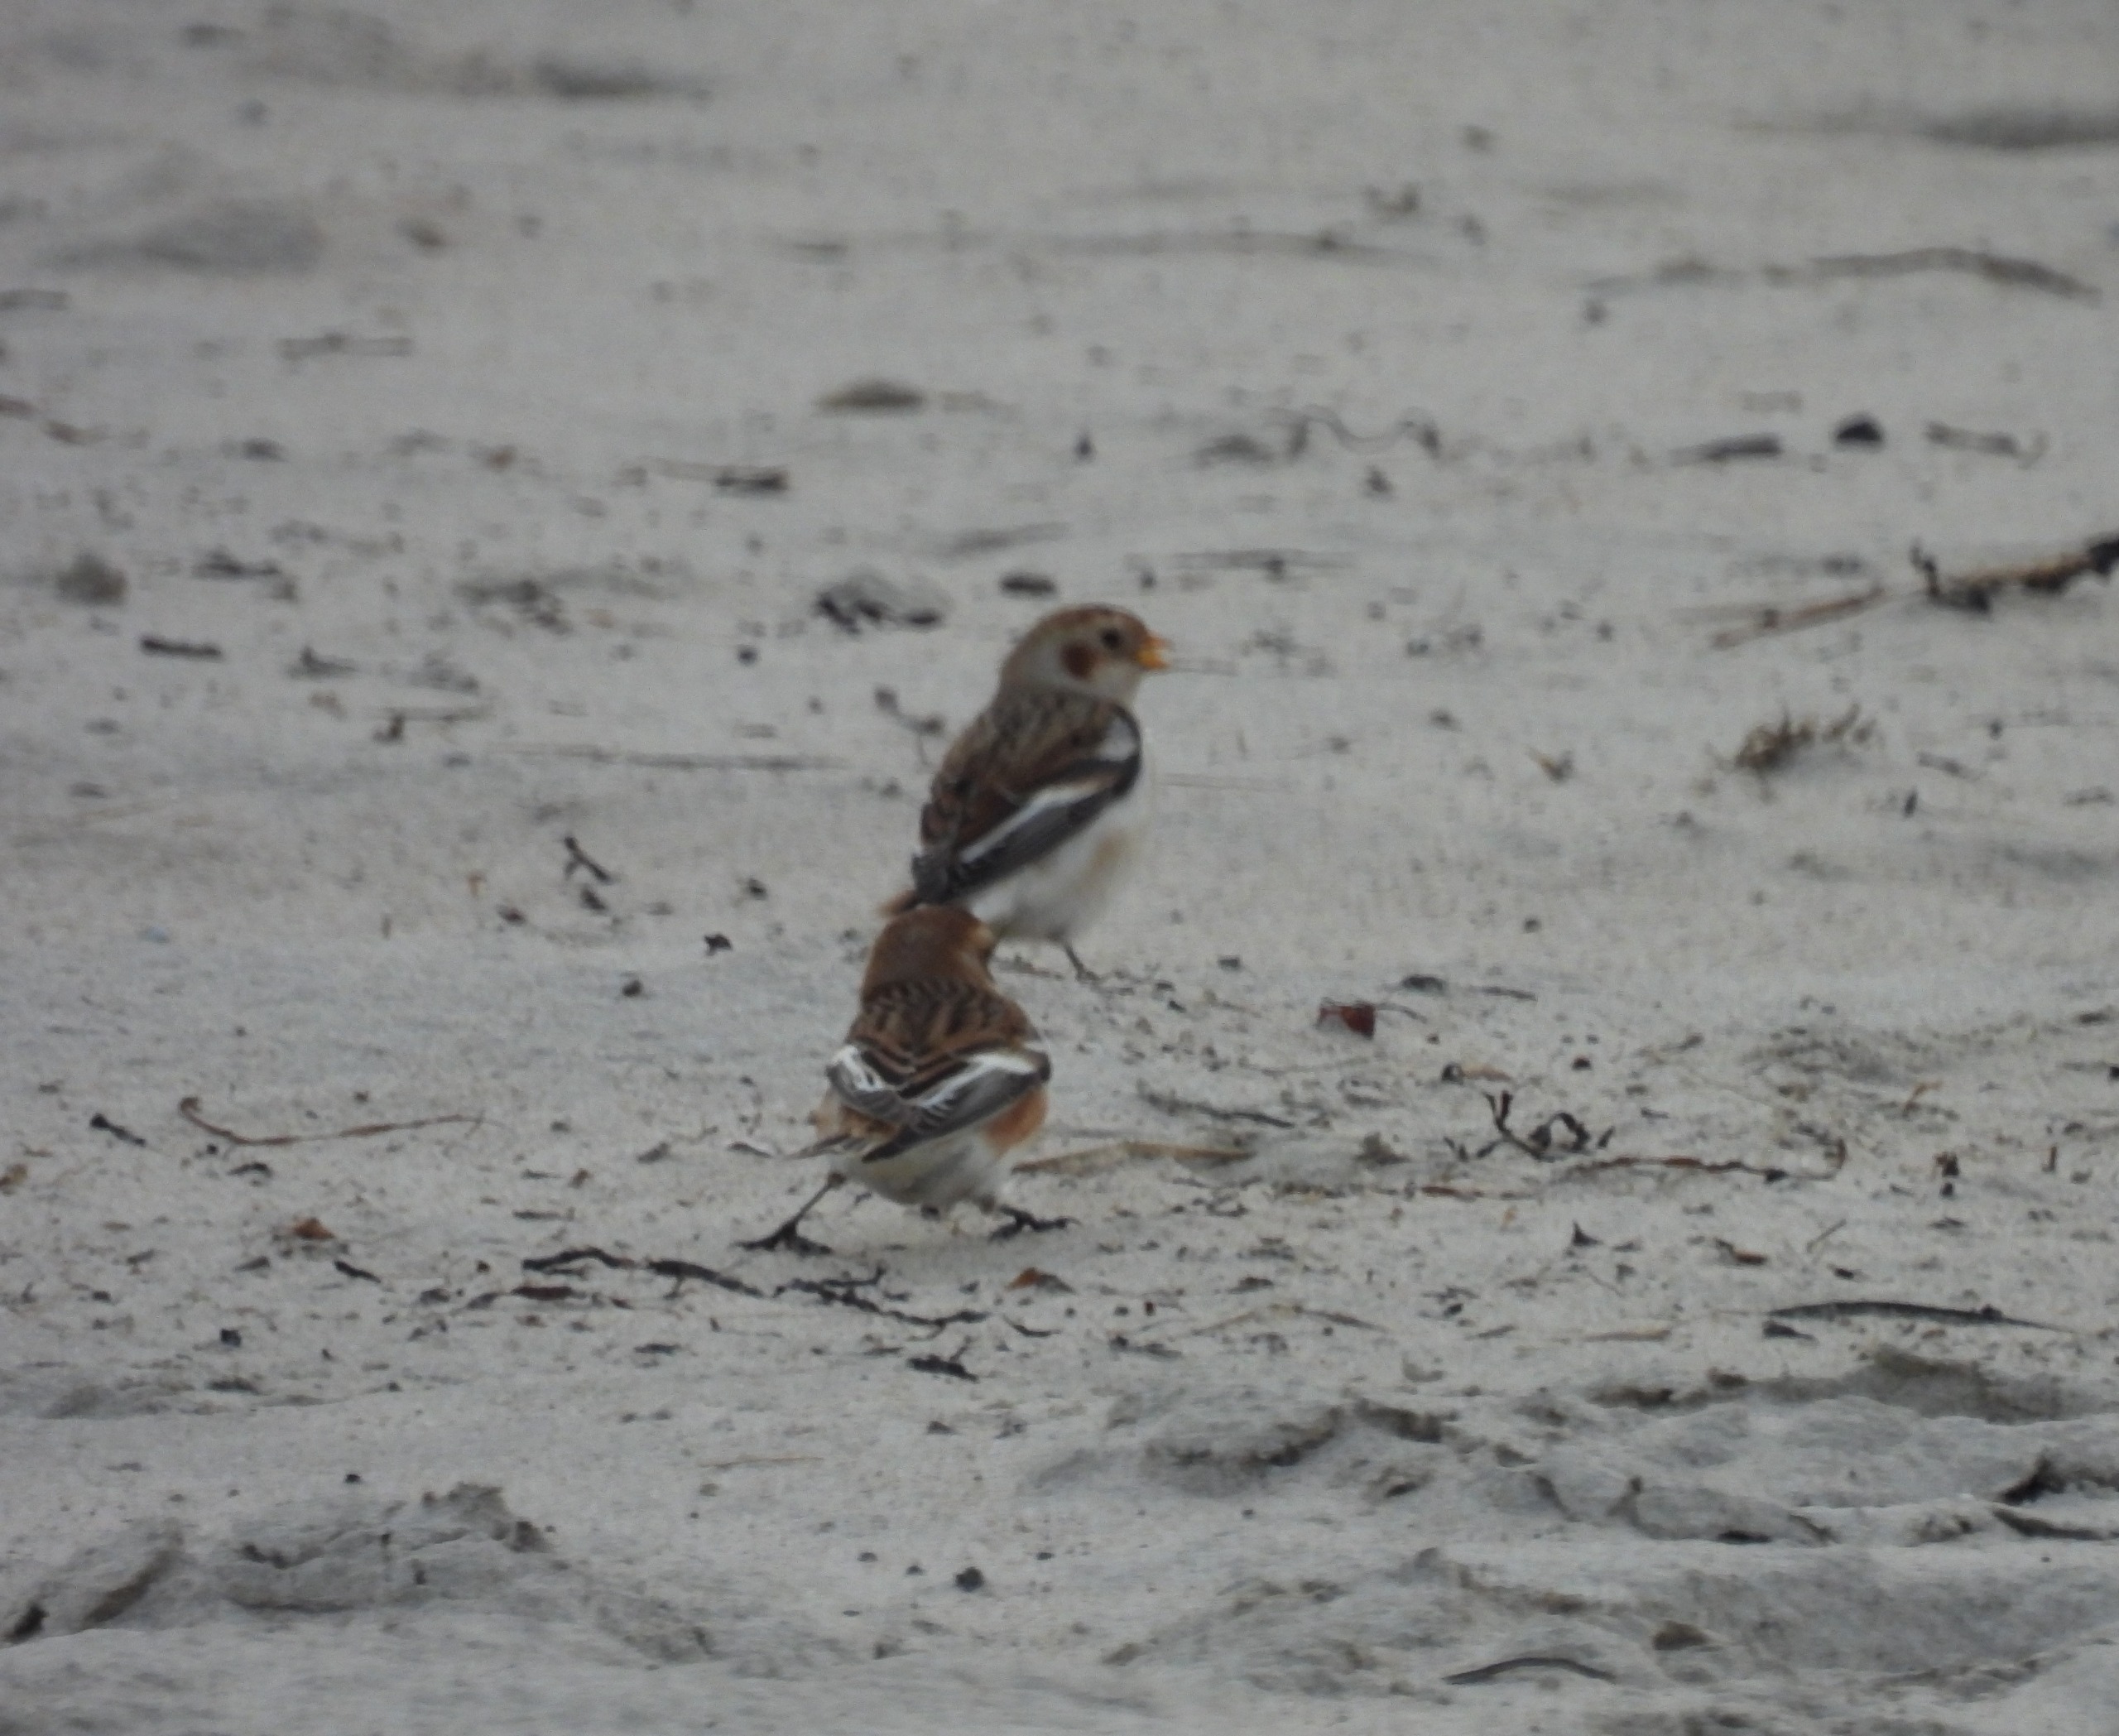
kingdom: Animalia
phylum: Chordata
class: Aves
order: Passeriformes
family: Calcariidae
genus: Plectrophenax
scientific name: Plectrophenax nivalis
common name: Snespurv
